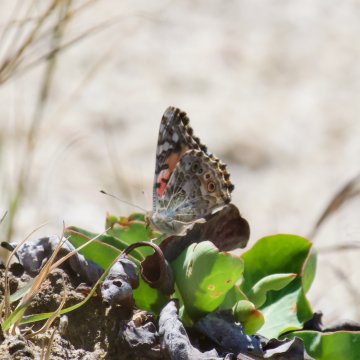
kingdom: Animalia
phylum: Arthropoda
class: Insecta
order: Lepidoptera
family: Nymphalidae
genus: Vanessa
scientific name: Vanessa cardui
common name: Painted Lady
